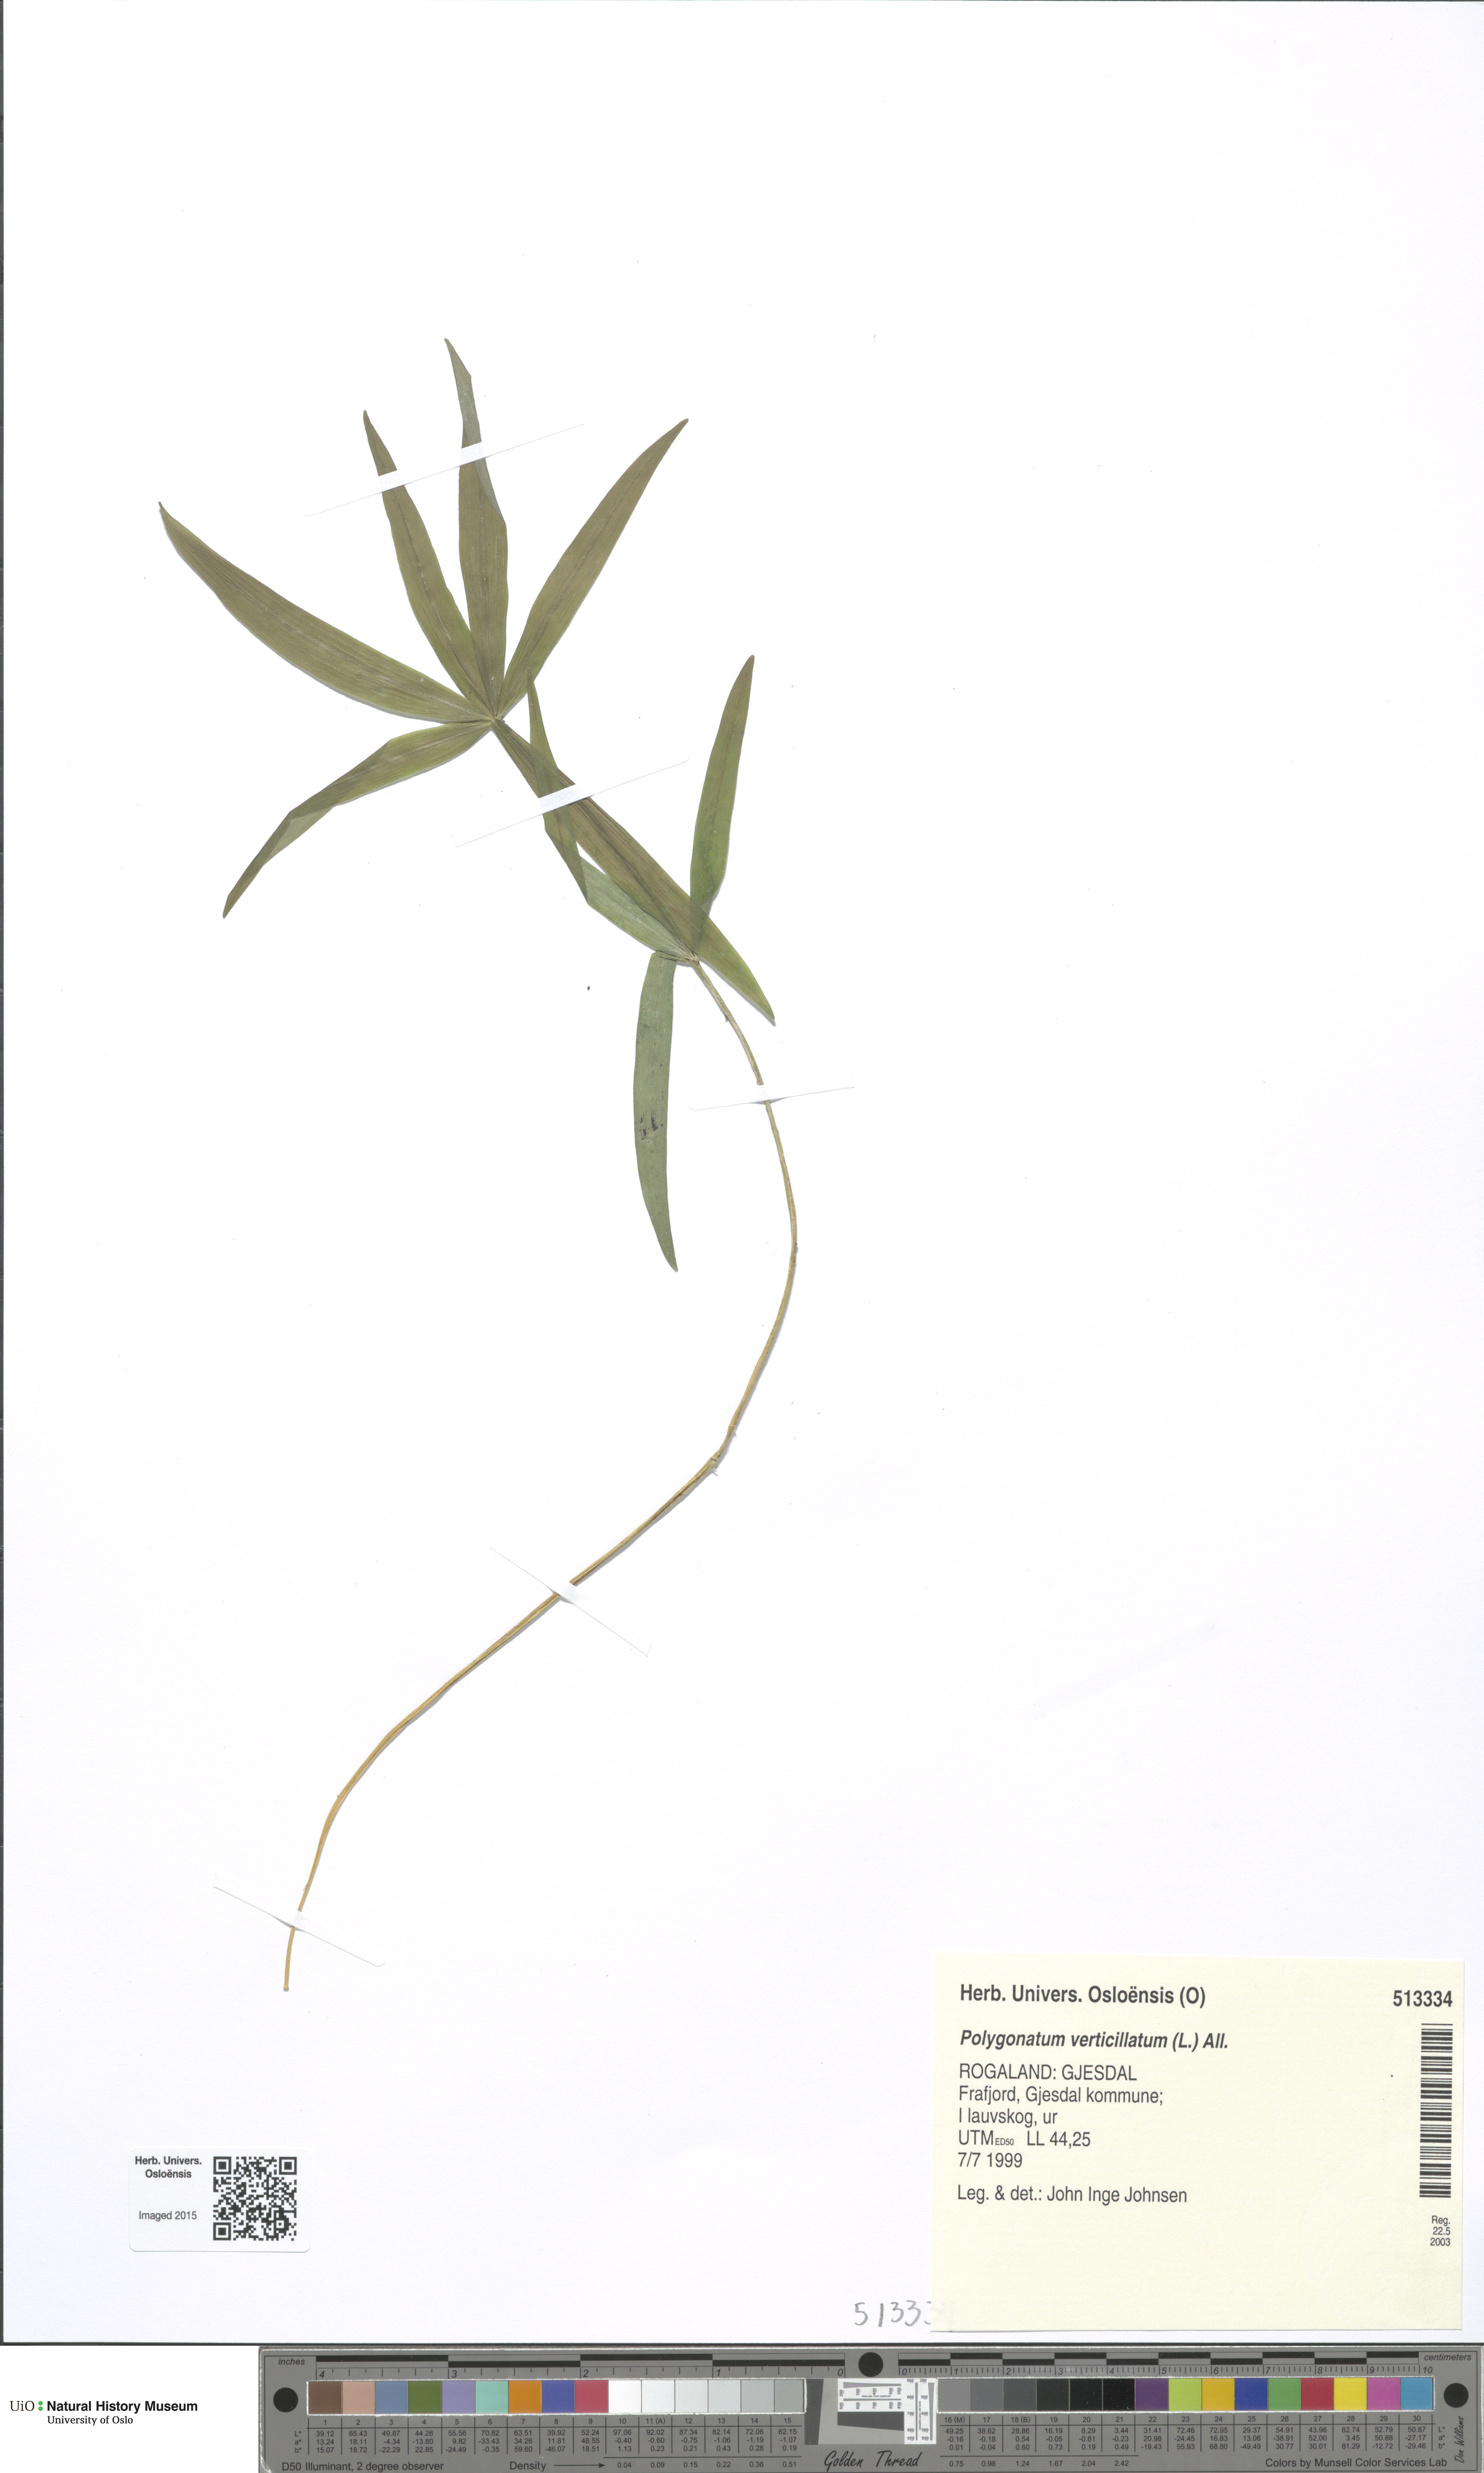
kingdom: Plantae
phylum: Tracheophyta
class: Liliopsida
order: Asparagales
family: Asparagaceae
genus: Polygonatum
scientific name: Polygonatum verticillatum
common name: Whorled solomon's-seal
